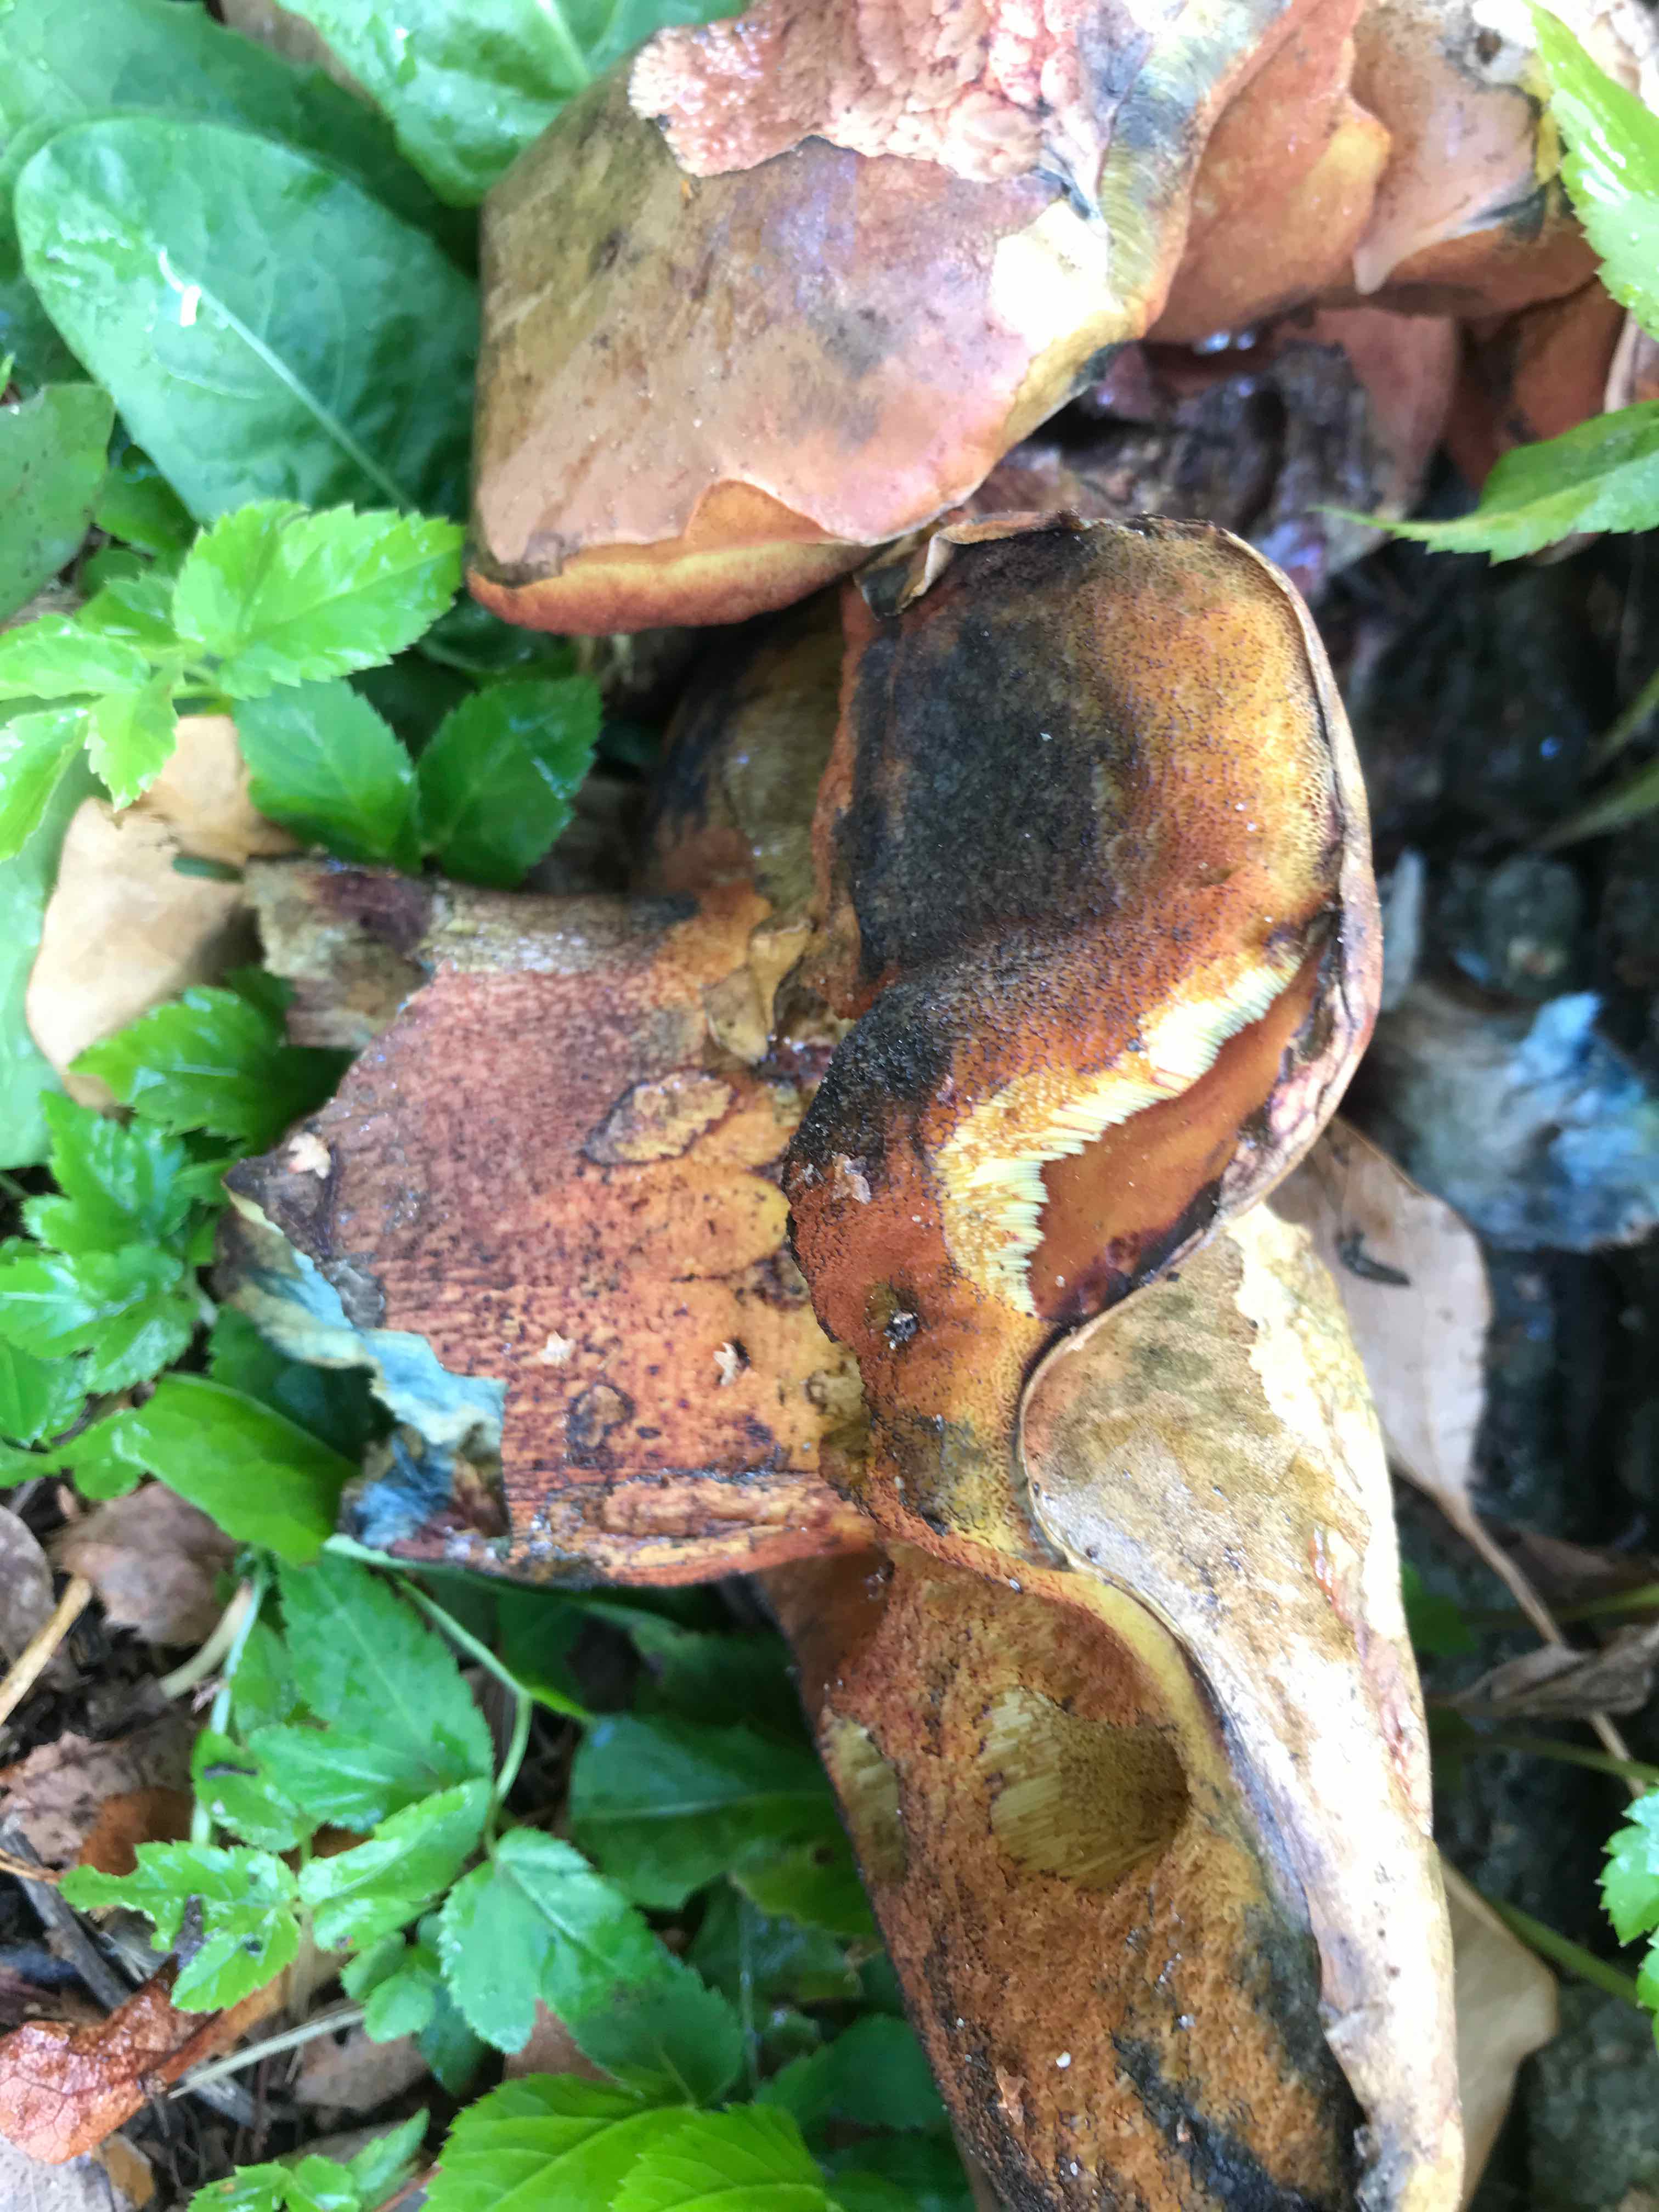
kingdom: Fungi
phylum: Basidiomycota
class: Agaricomycetes
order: Boletales
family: Boletaceae
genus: Suillellus
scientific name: Suillellus luridus
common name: netstokket indigorørhat
